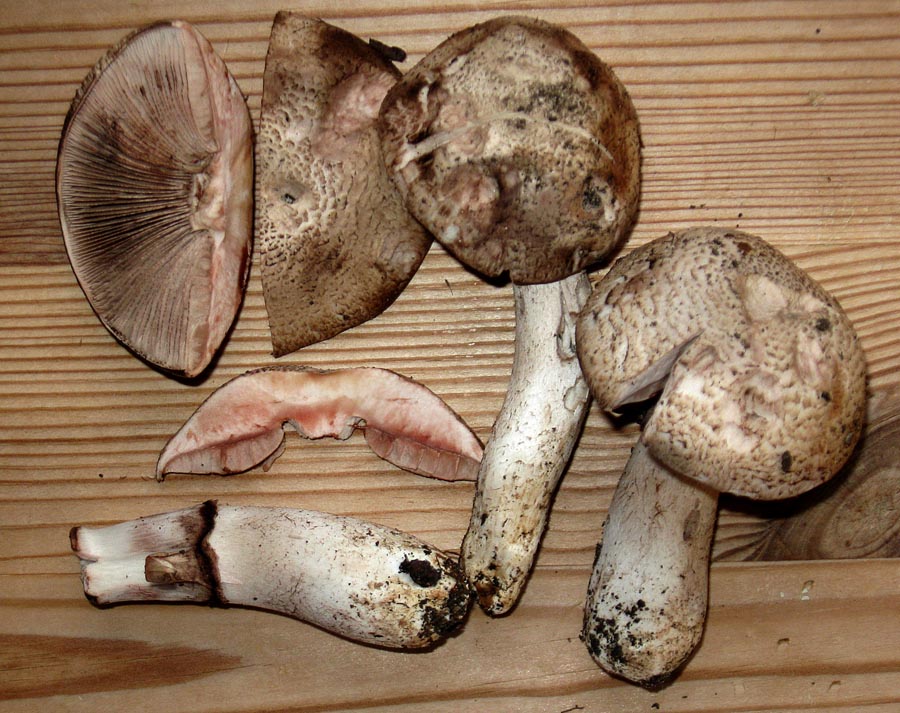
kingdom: Fungi
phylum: Basidiomycota
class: Agaricomycetes
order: Agaricales
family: Agaricaceae
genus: Agaricus
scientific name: Agaricus sylvaticus
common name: lille blod-champignon
